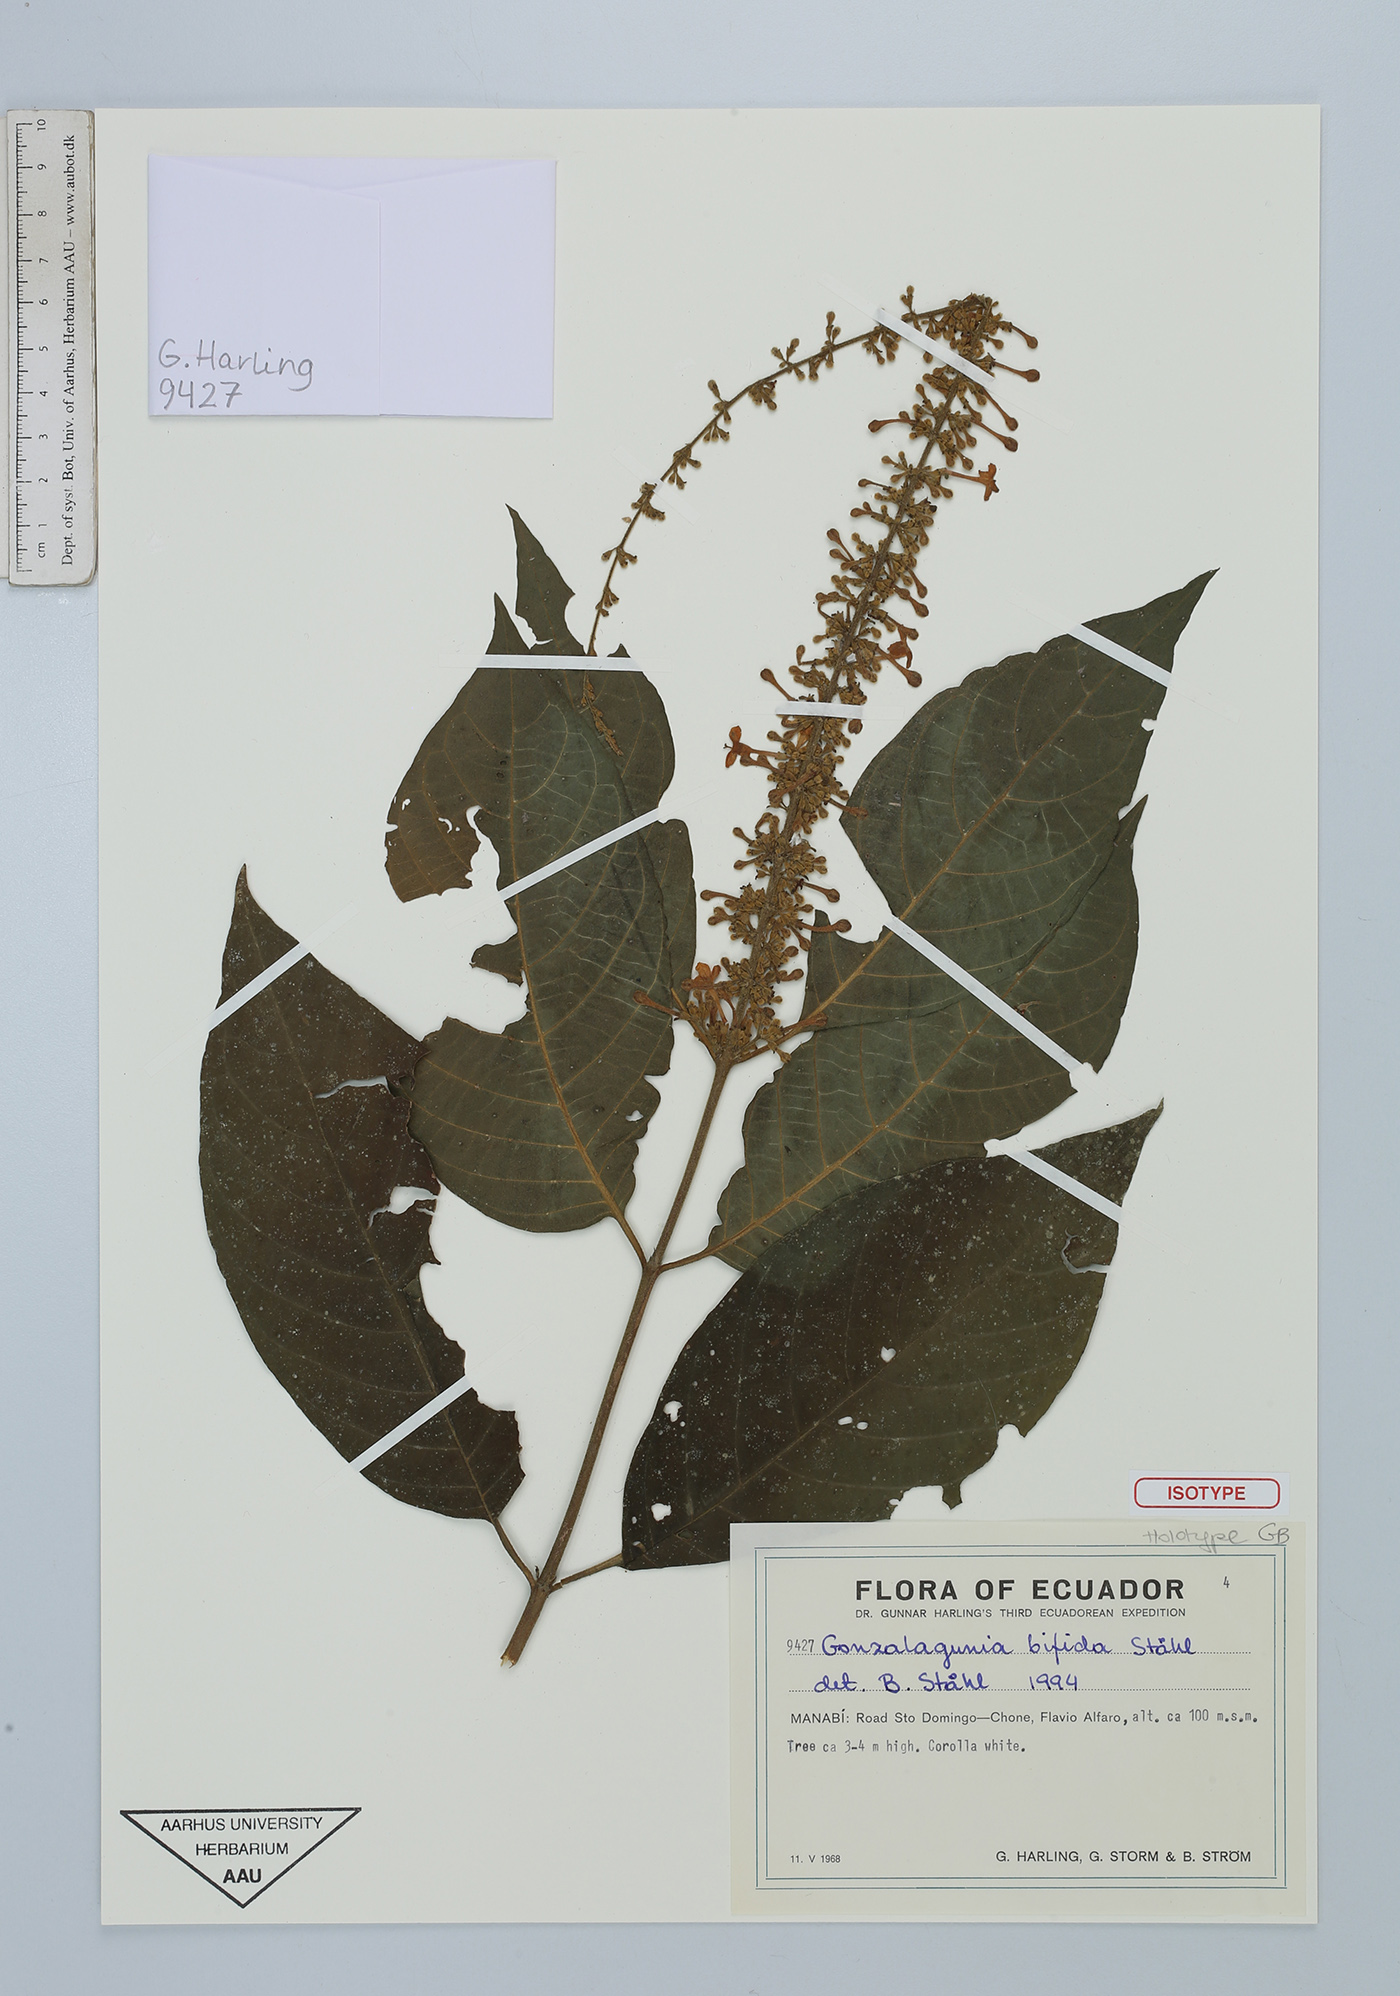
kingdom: Plantae
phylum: Tracheophyta
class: Magnoliopsida
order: Gentianales
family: Rubiaceae
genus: Gonzalagunia
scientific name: Gonzalagunia bifida
